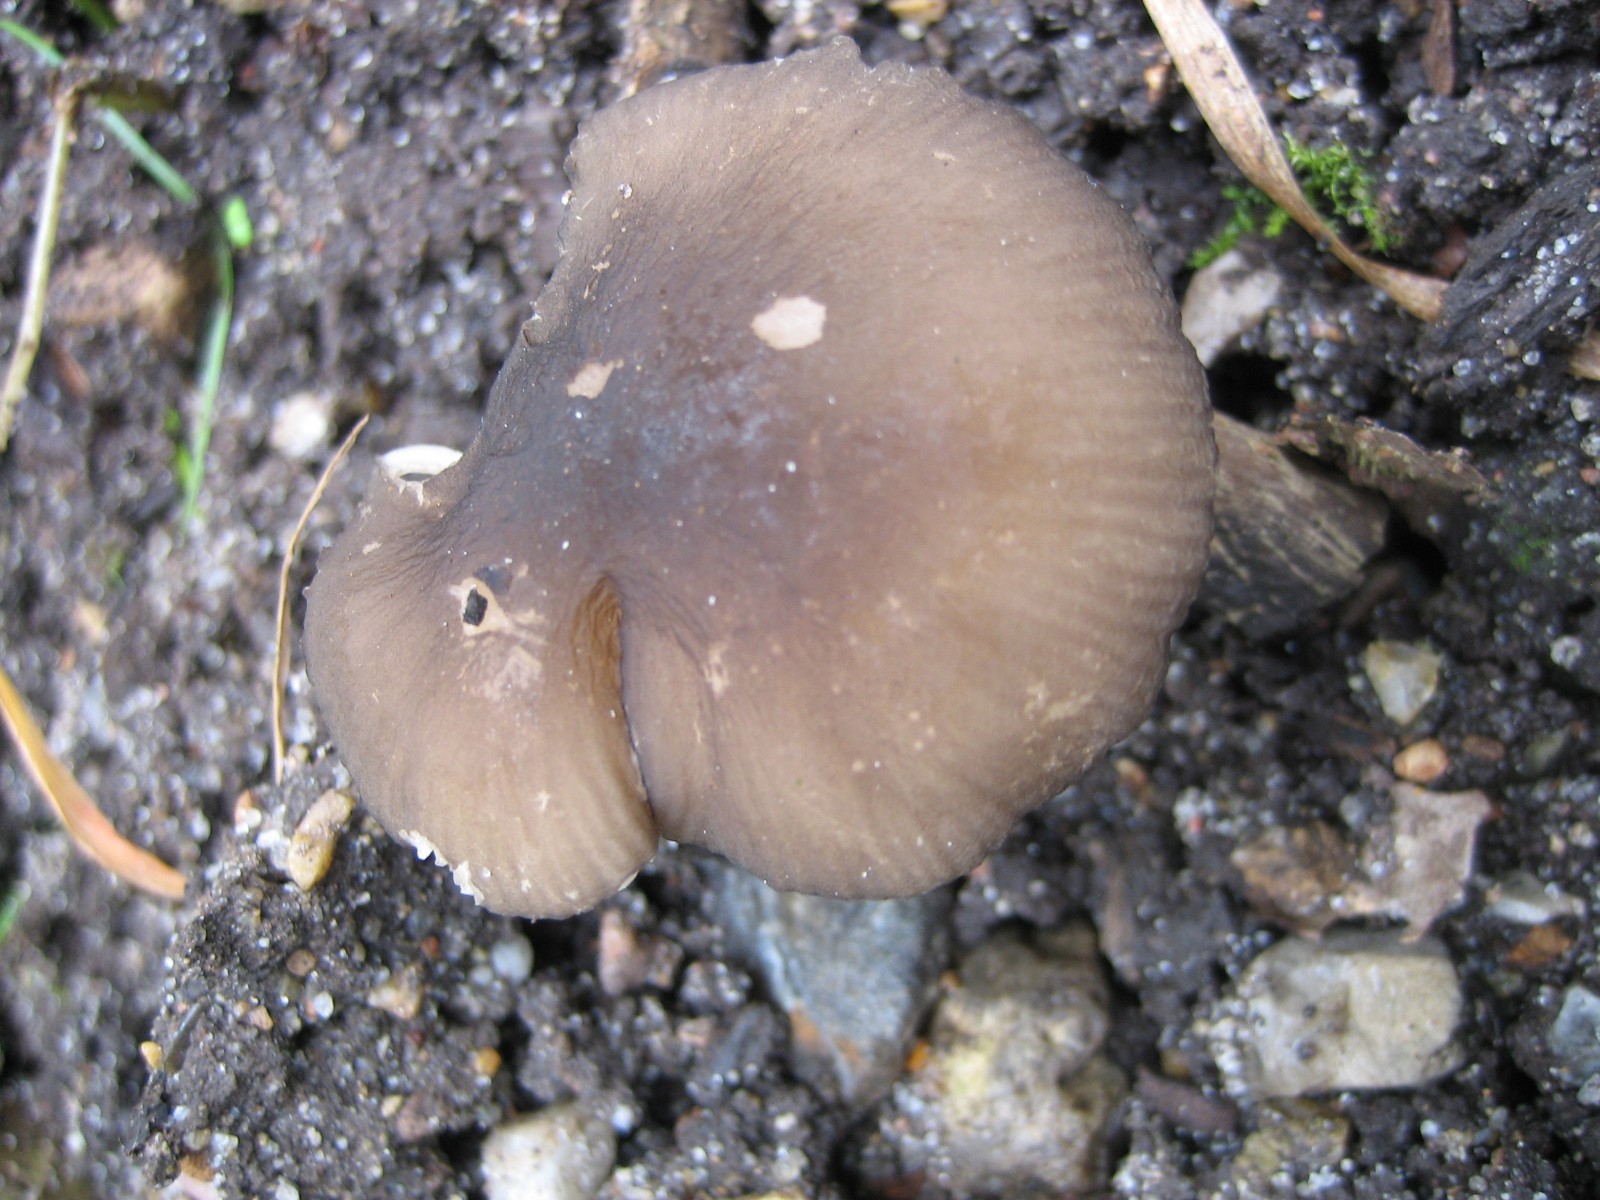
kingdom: Fungi
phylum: Basidiomycota
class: Agaricomycetes
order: Agaricales
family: Pluteaceae
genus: Pluteus
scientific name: Pluteus
